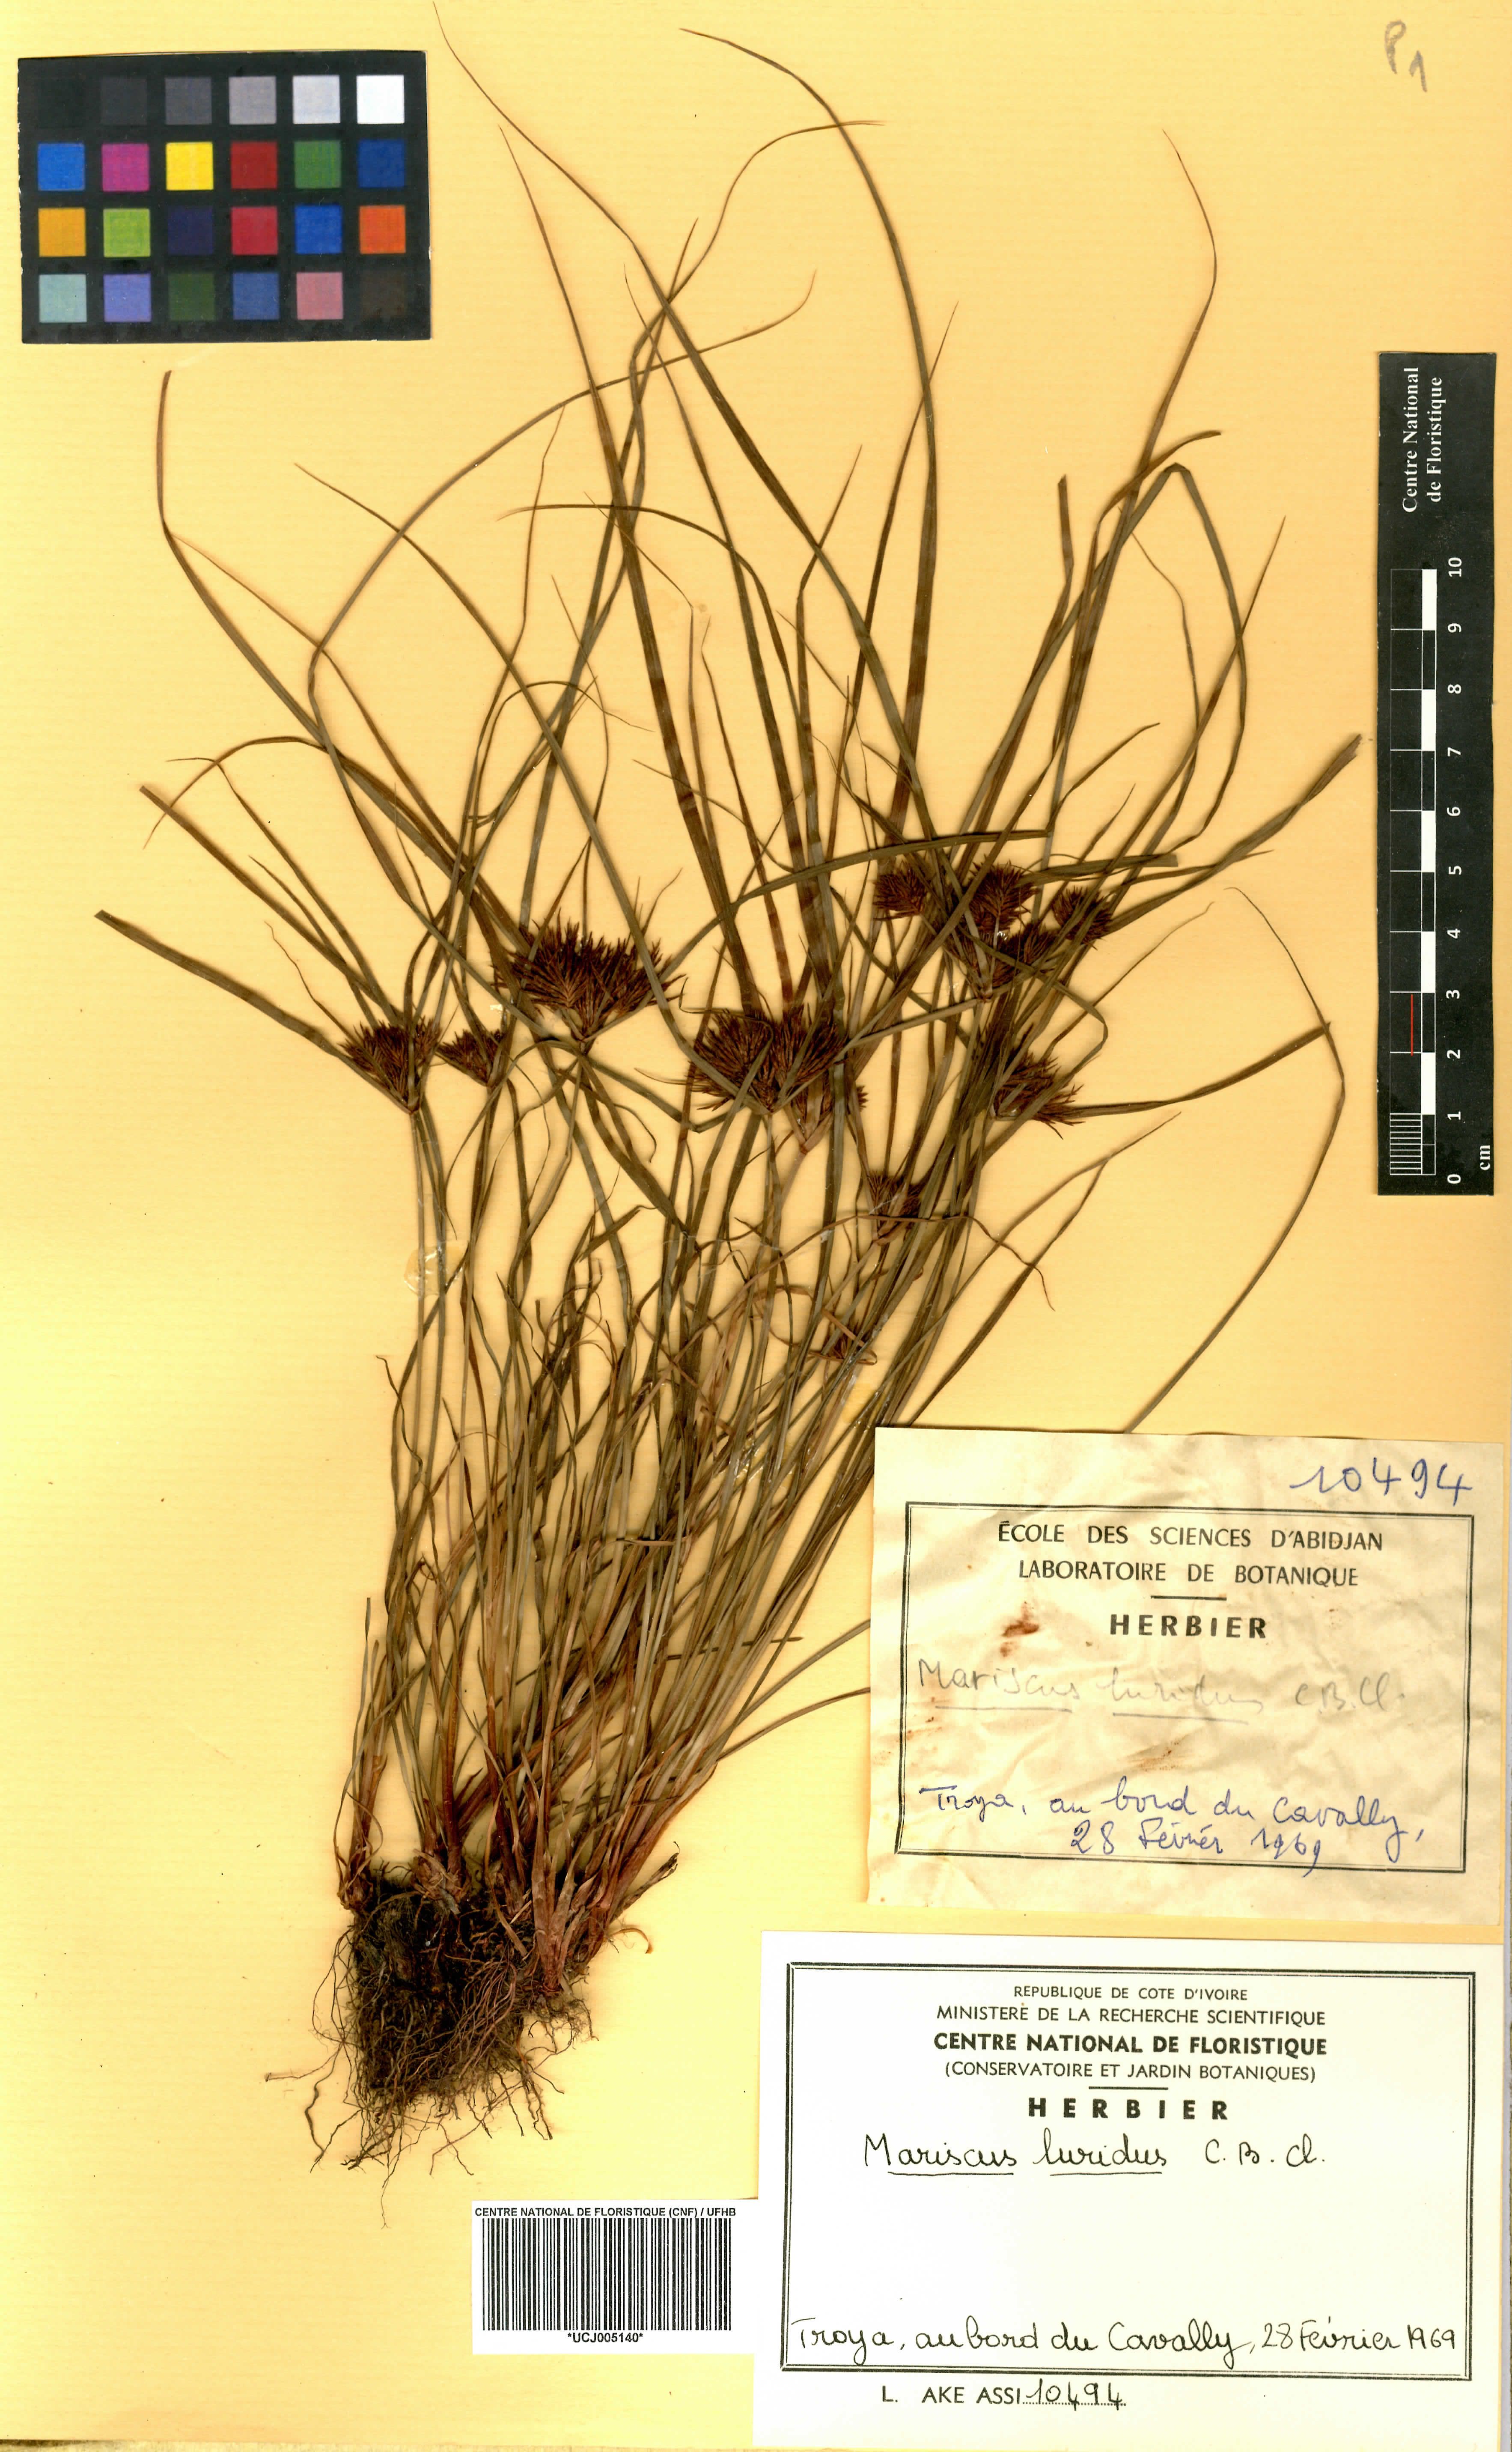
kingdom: Plantae
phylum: Tracheophyta
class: Liliopsida
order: Poales
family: Cyperaceae
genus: Cladium
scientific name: Cladium Mariscus luridus
